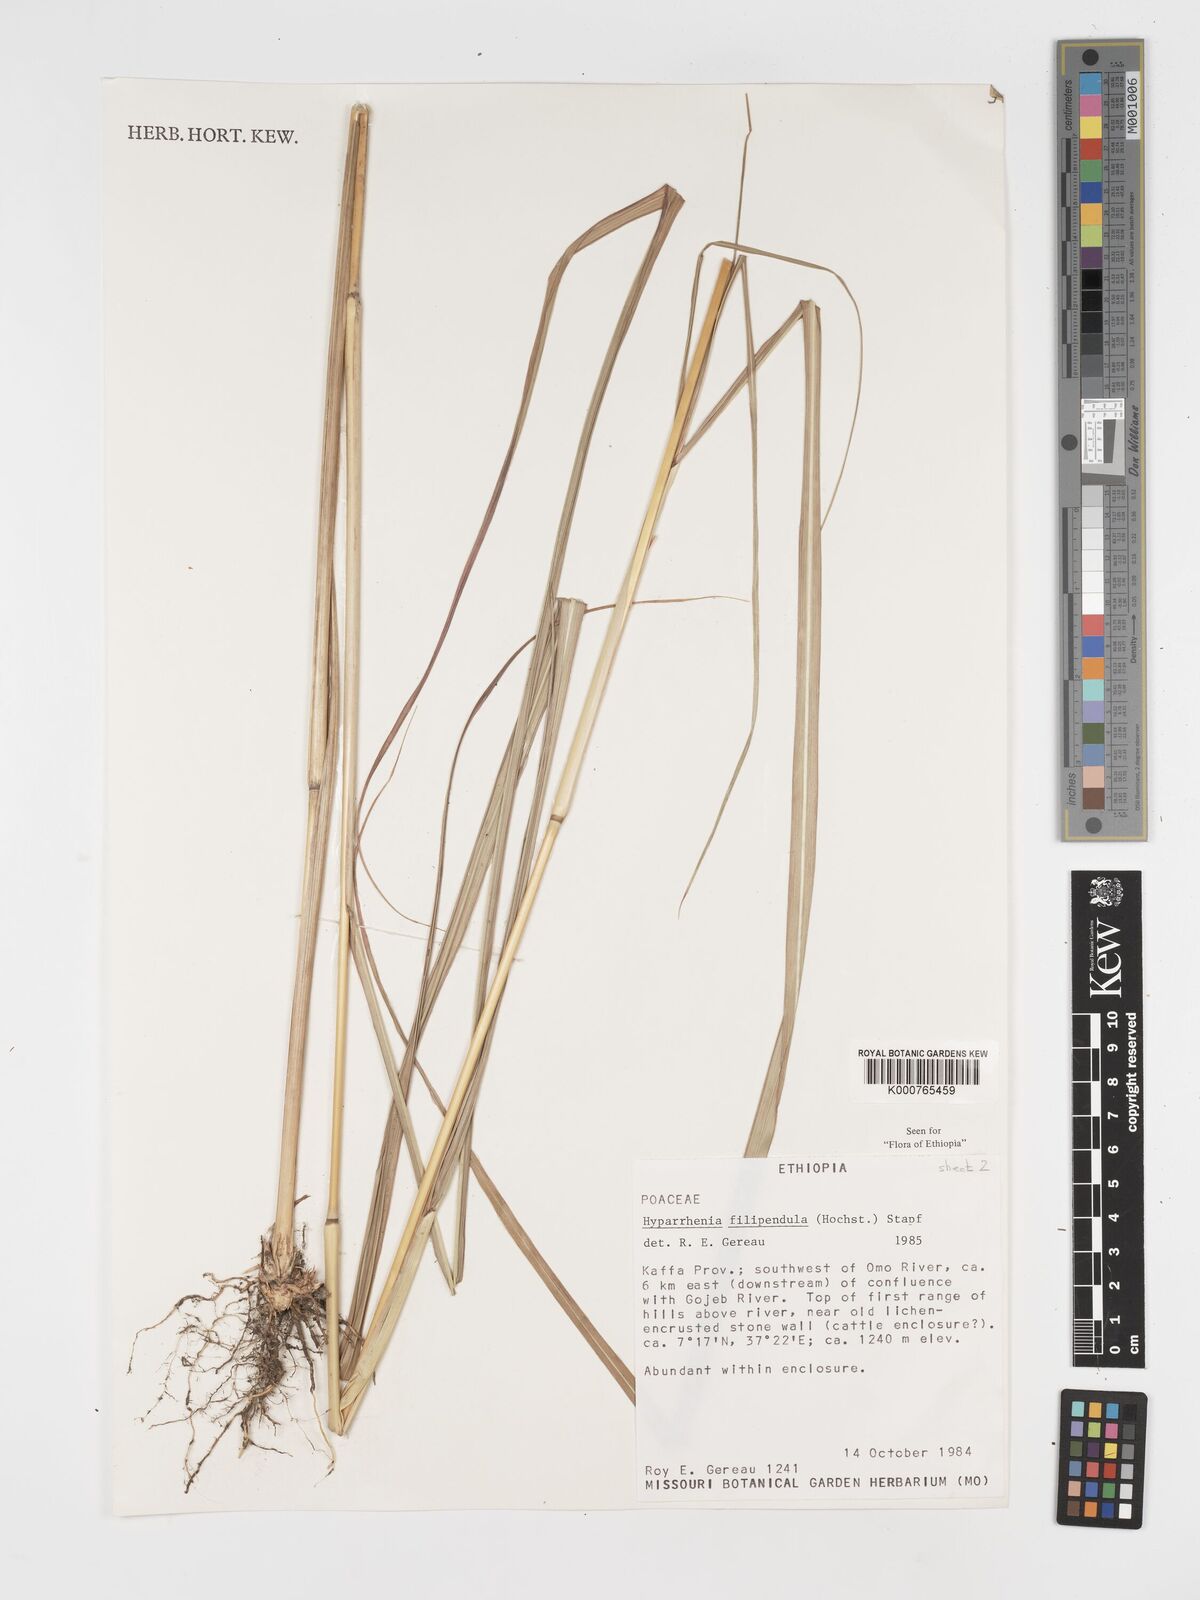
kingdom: Plantae
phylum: Tracheophyta
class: Liliopsida
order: Poales
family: Poaceae
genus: Hyparrhenia
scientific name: Hyparrhenia filipendula
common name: Tambookie grass
